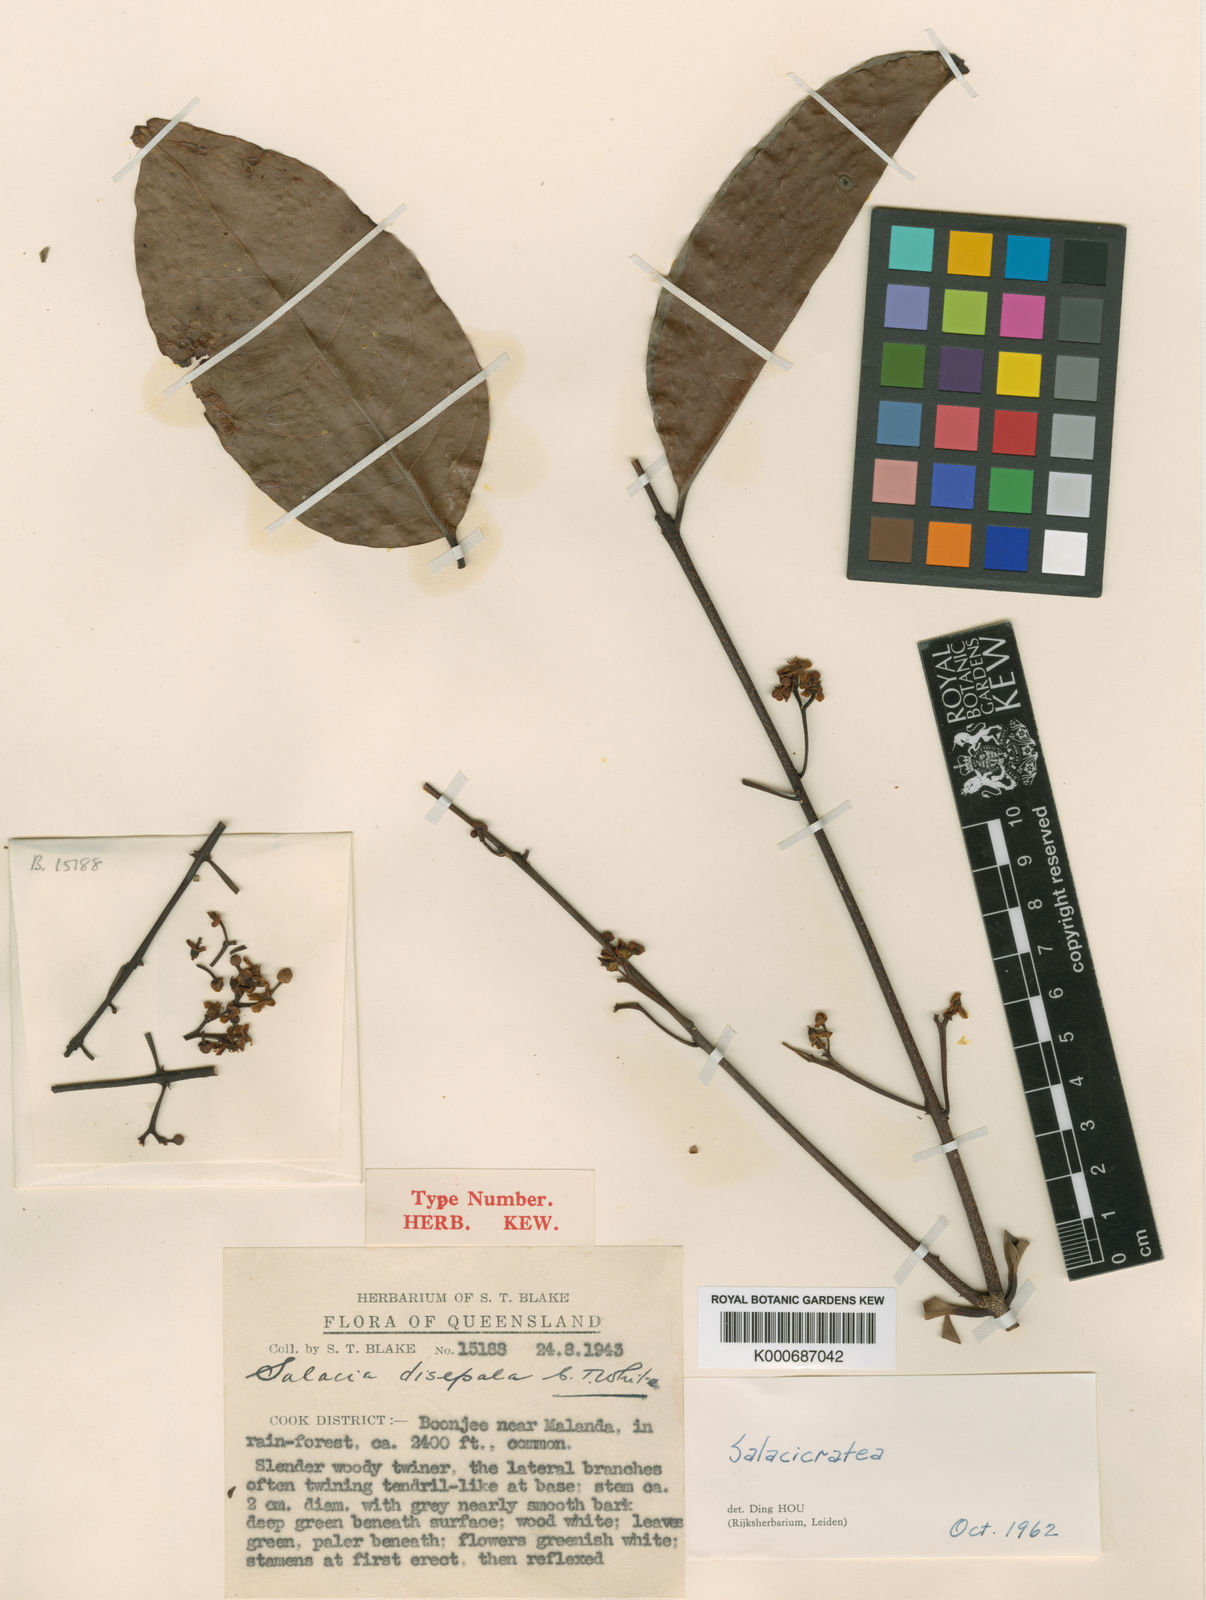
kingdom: Plantae
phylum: Tracheophyta
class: Magnoliopsida
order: Celastrales
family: Celastraceae
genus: Salacia
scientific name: Salacia disepala
